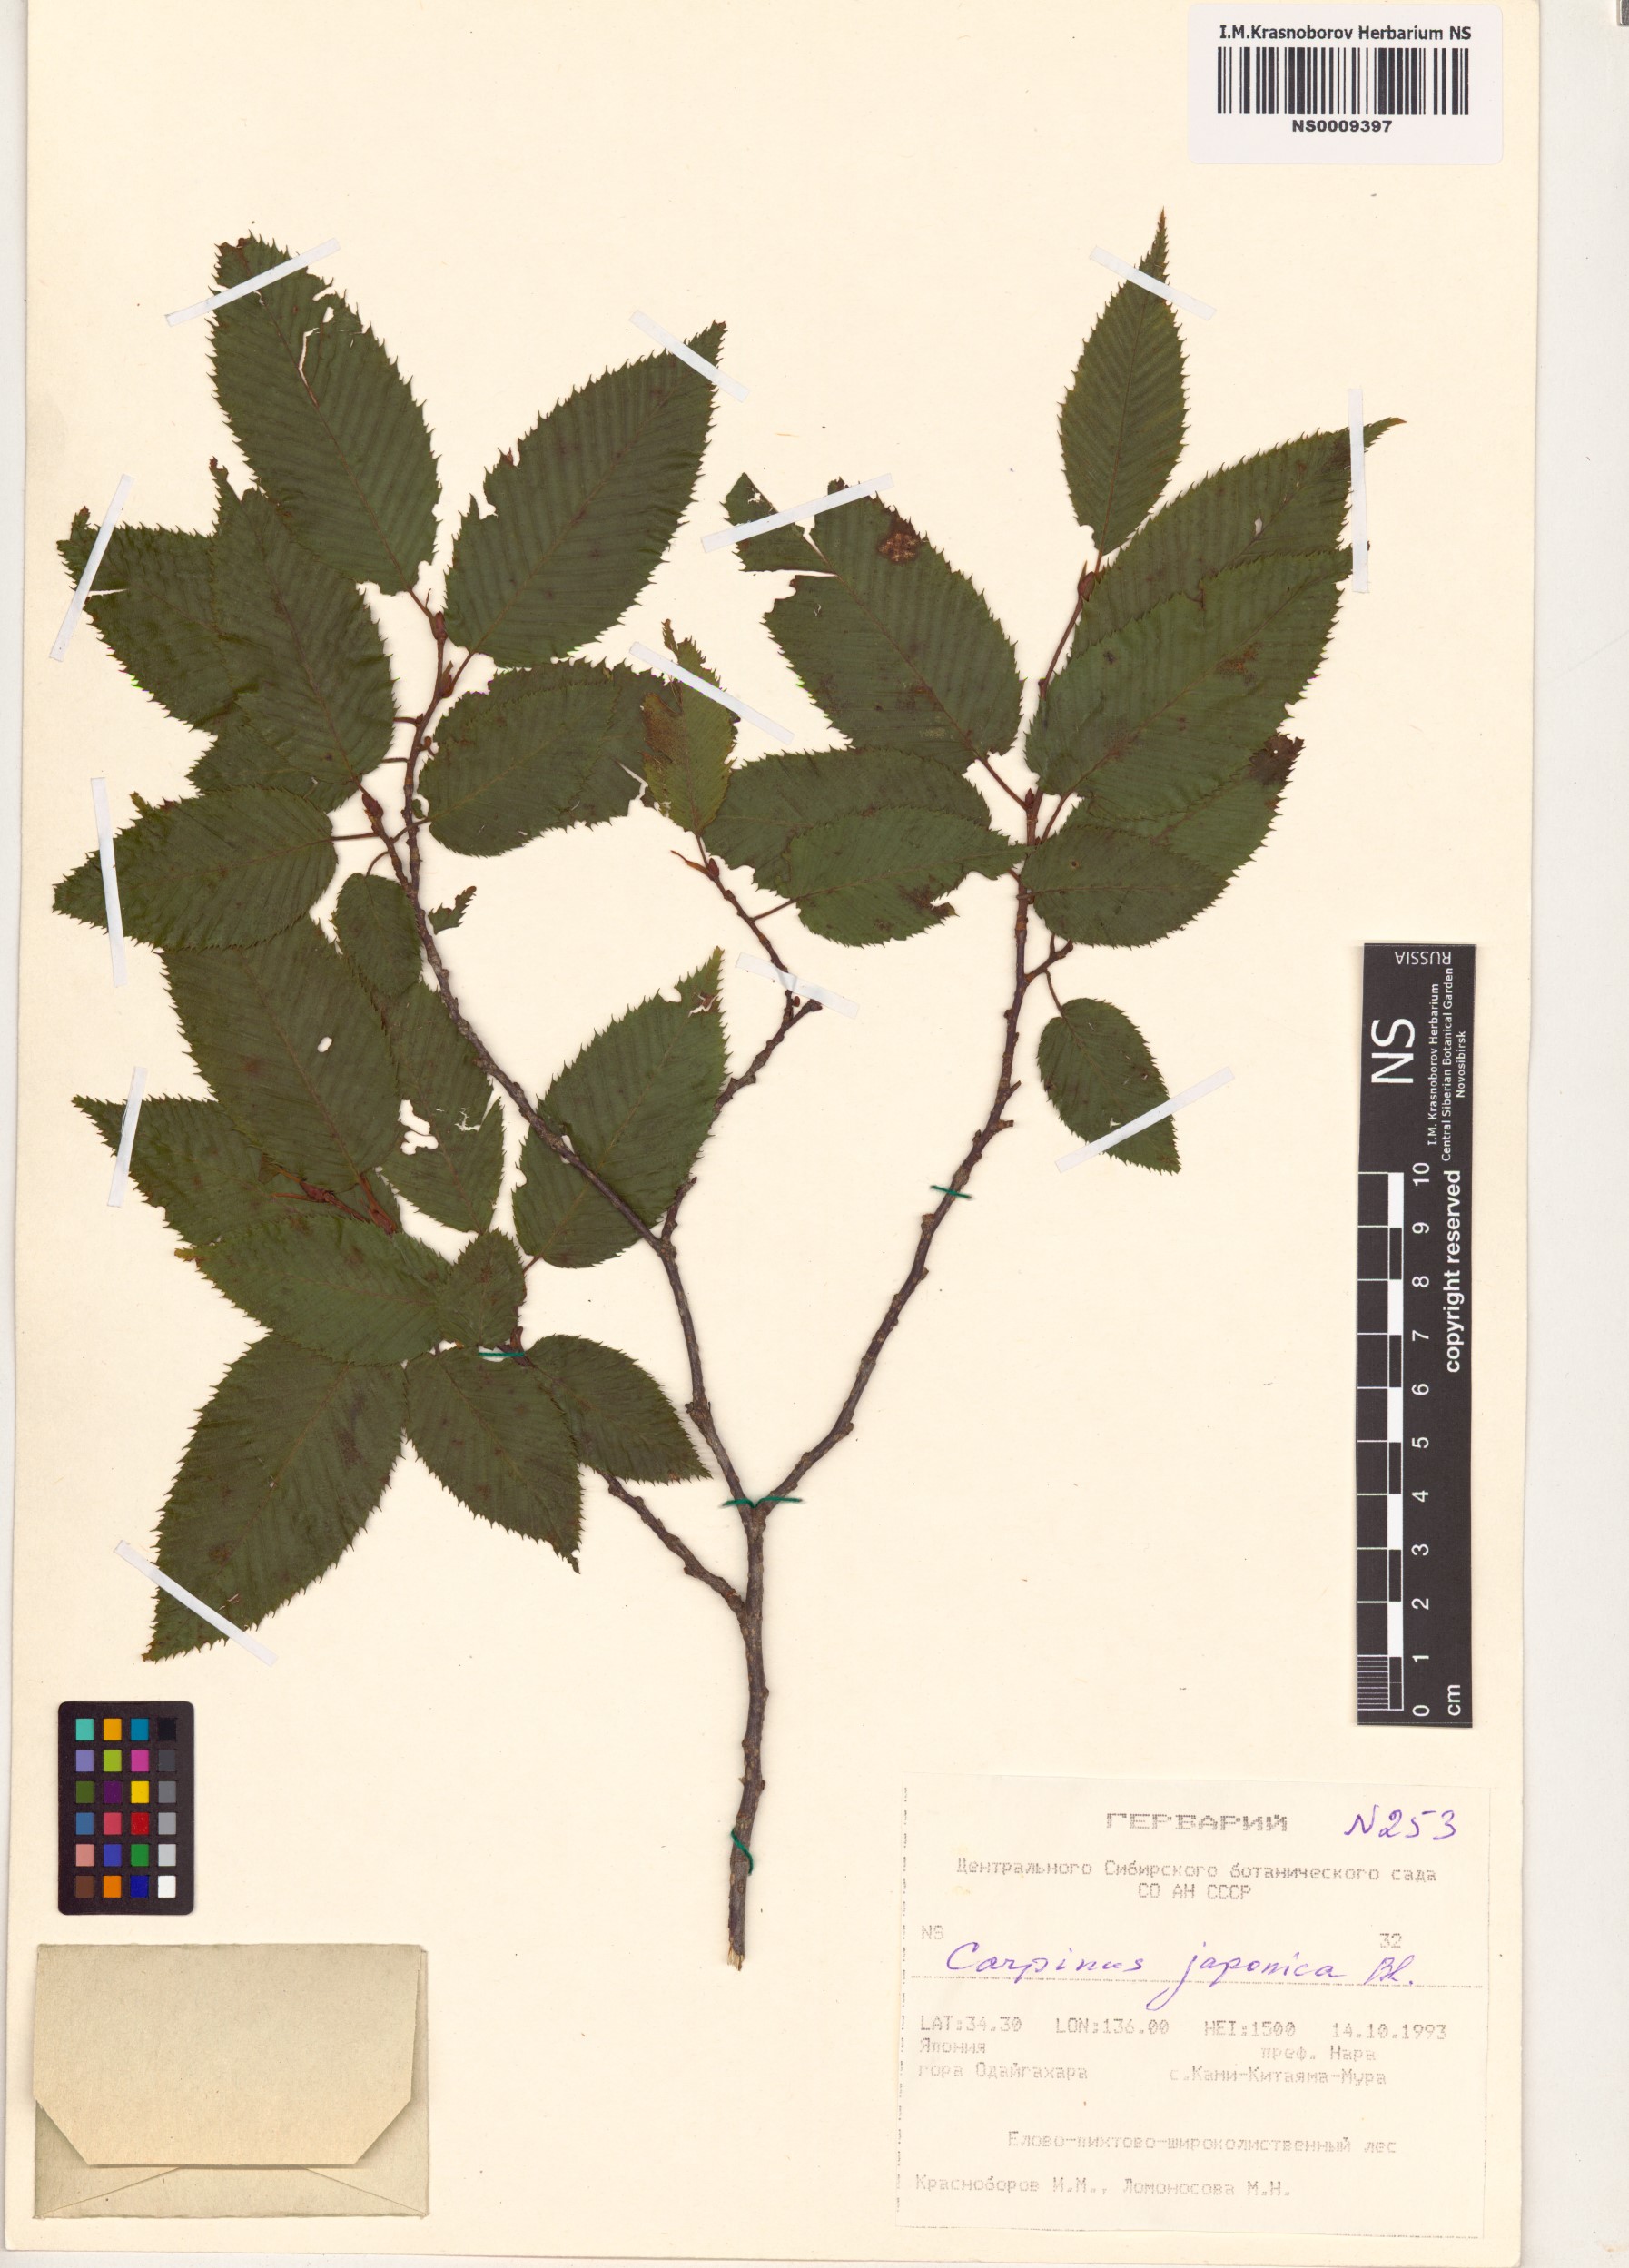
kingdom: Plantae
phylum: Tracheophyta
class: Magnoliopsida
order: Fagales
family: Betulaceae
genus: Carpinus
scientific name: Carpinus japonica
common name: Japanese hornbeam
